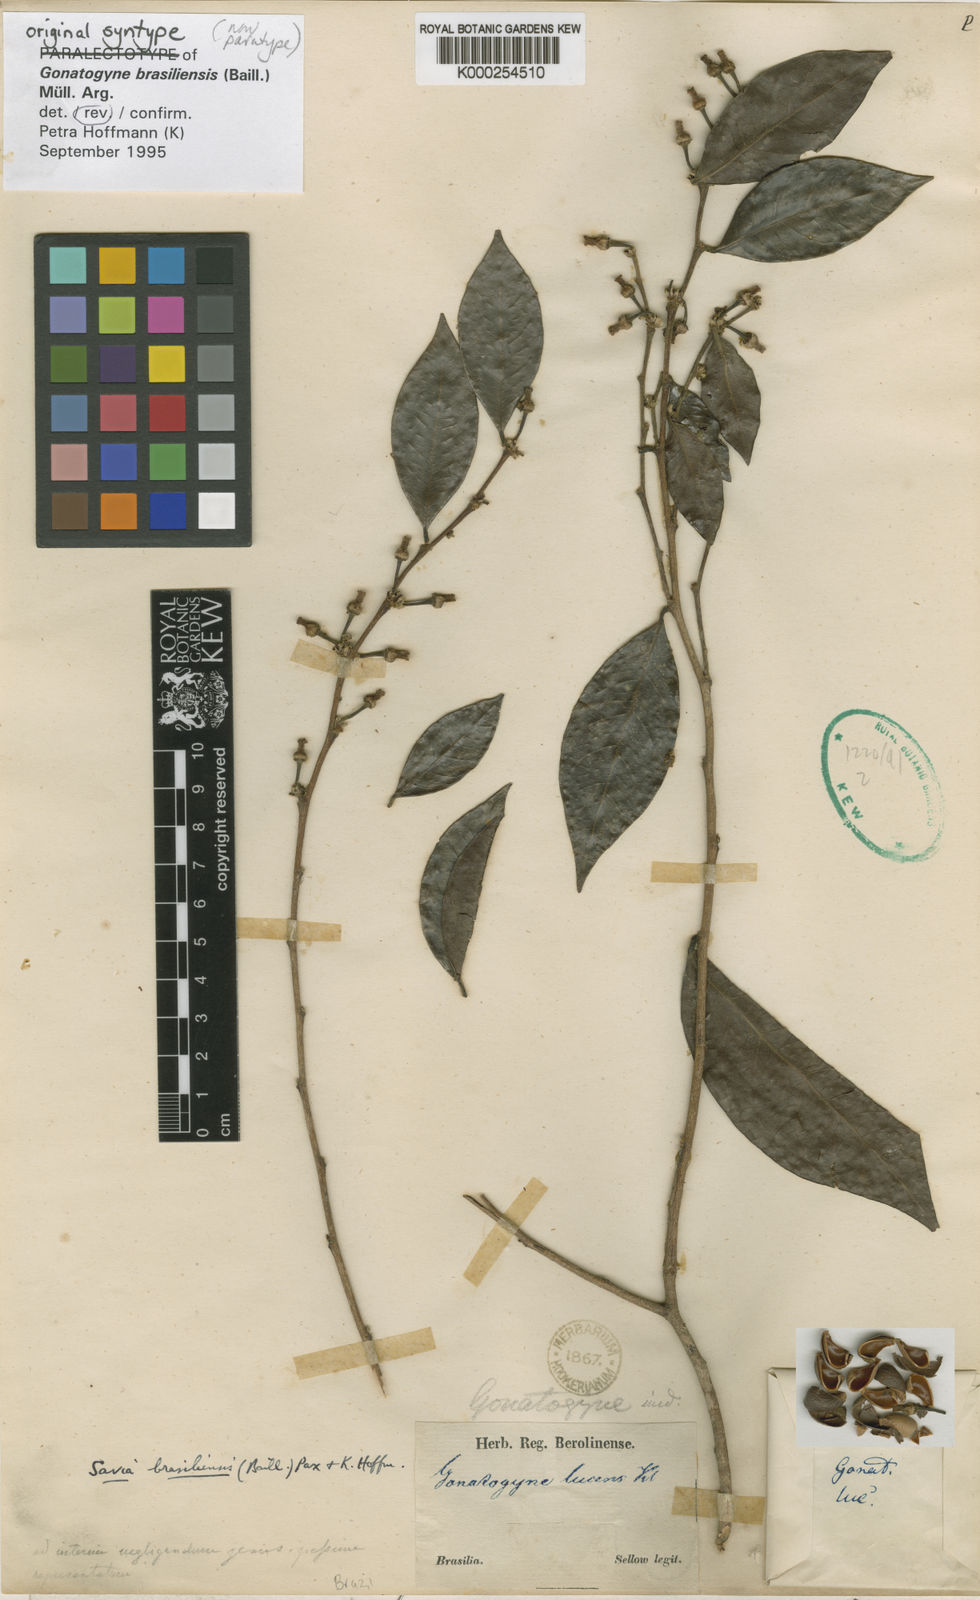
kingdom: Plantae
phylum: Tracheophyta
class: Magnoliopsida
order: Malpighiales
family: Phyllanthaceae
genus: Gonatogyne
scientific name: Gonatogyne
